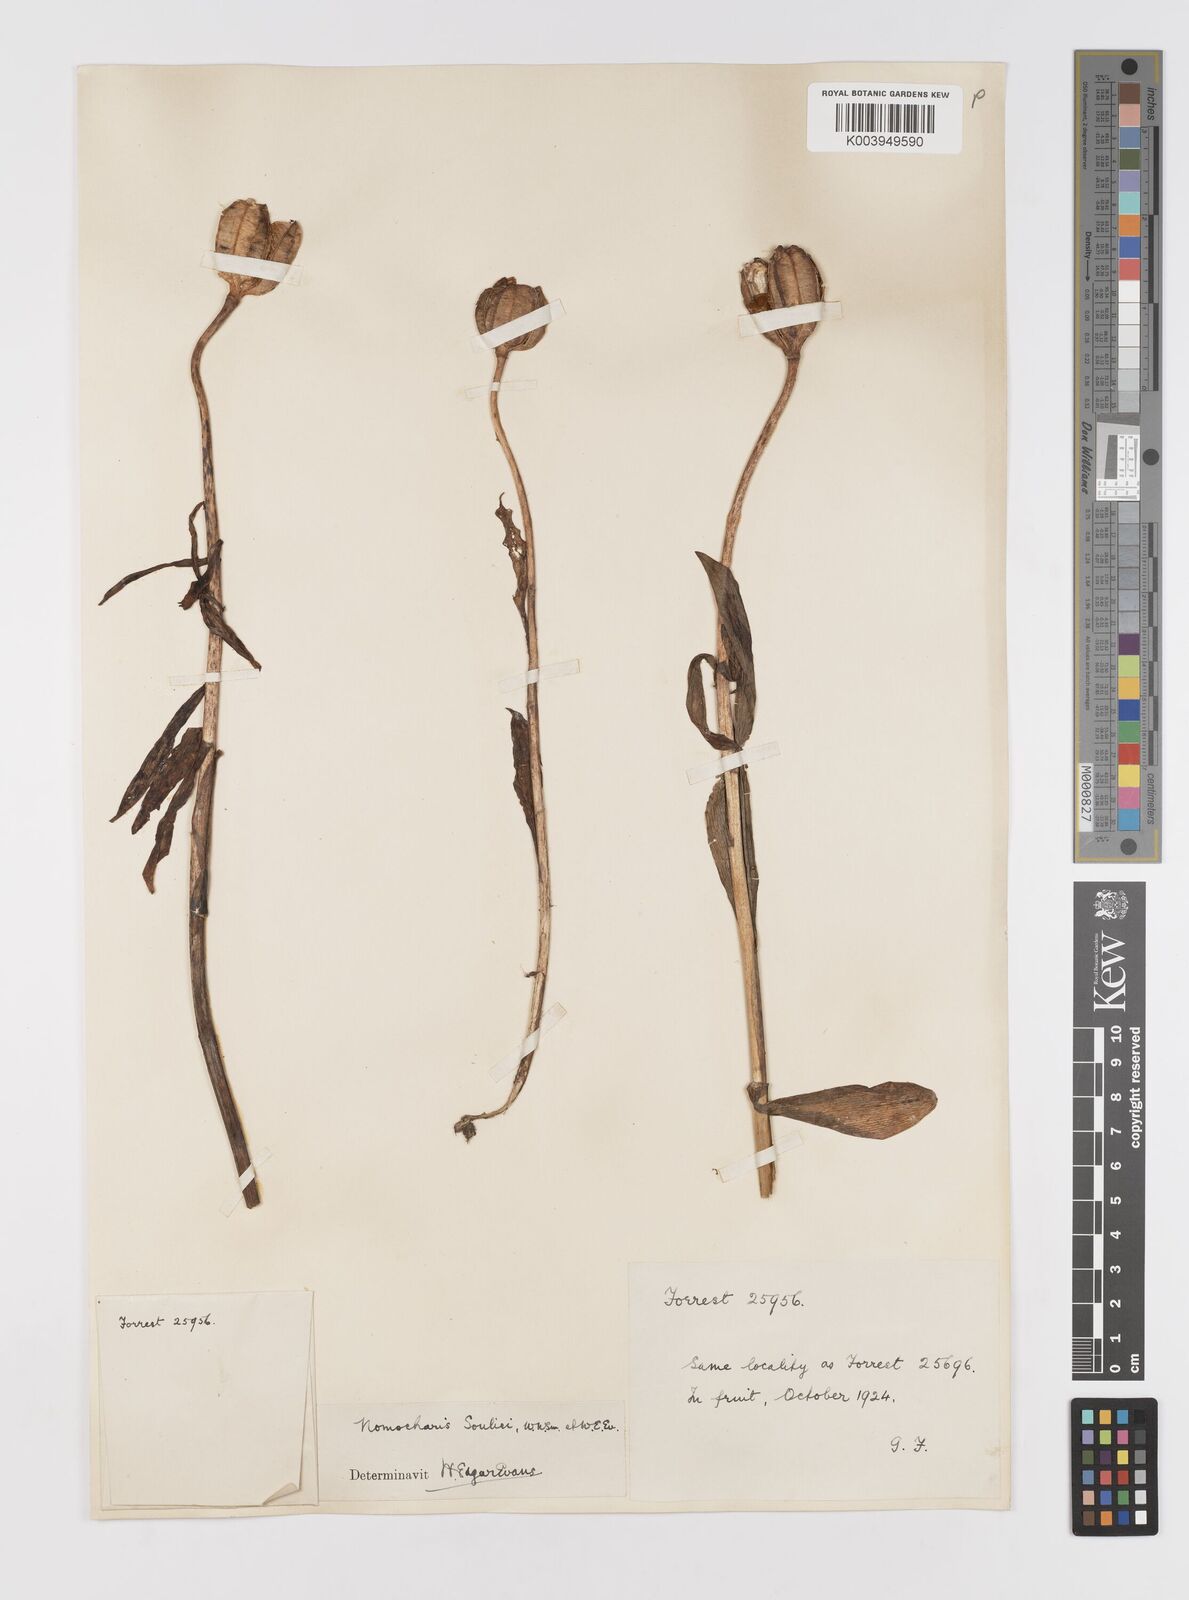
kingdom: Plantae
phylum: Tracheophyta
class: Liliopsida
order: Liliales
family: Liliaceae
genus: Lilium
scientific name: Lilium souliei
